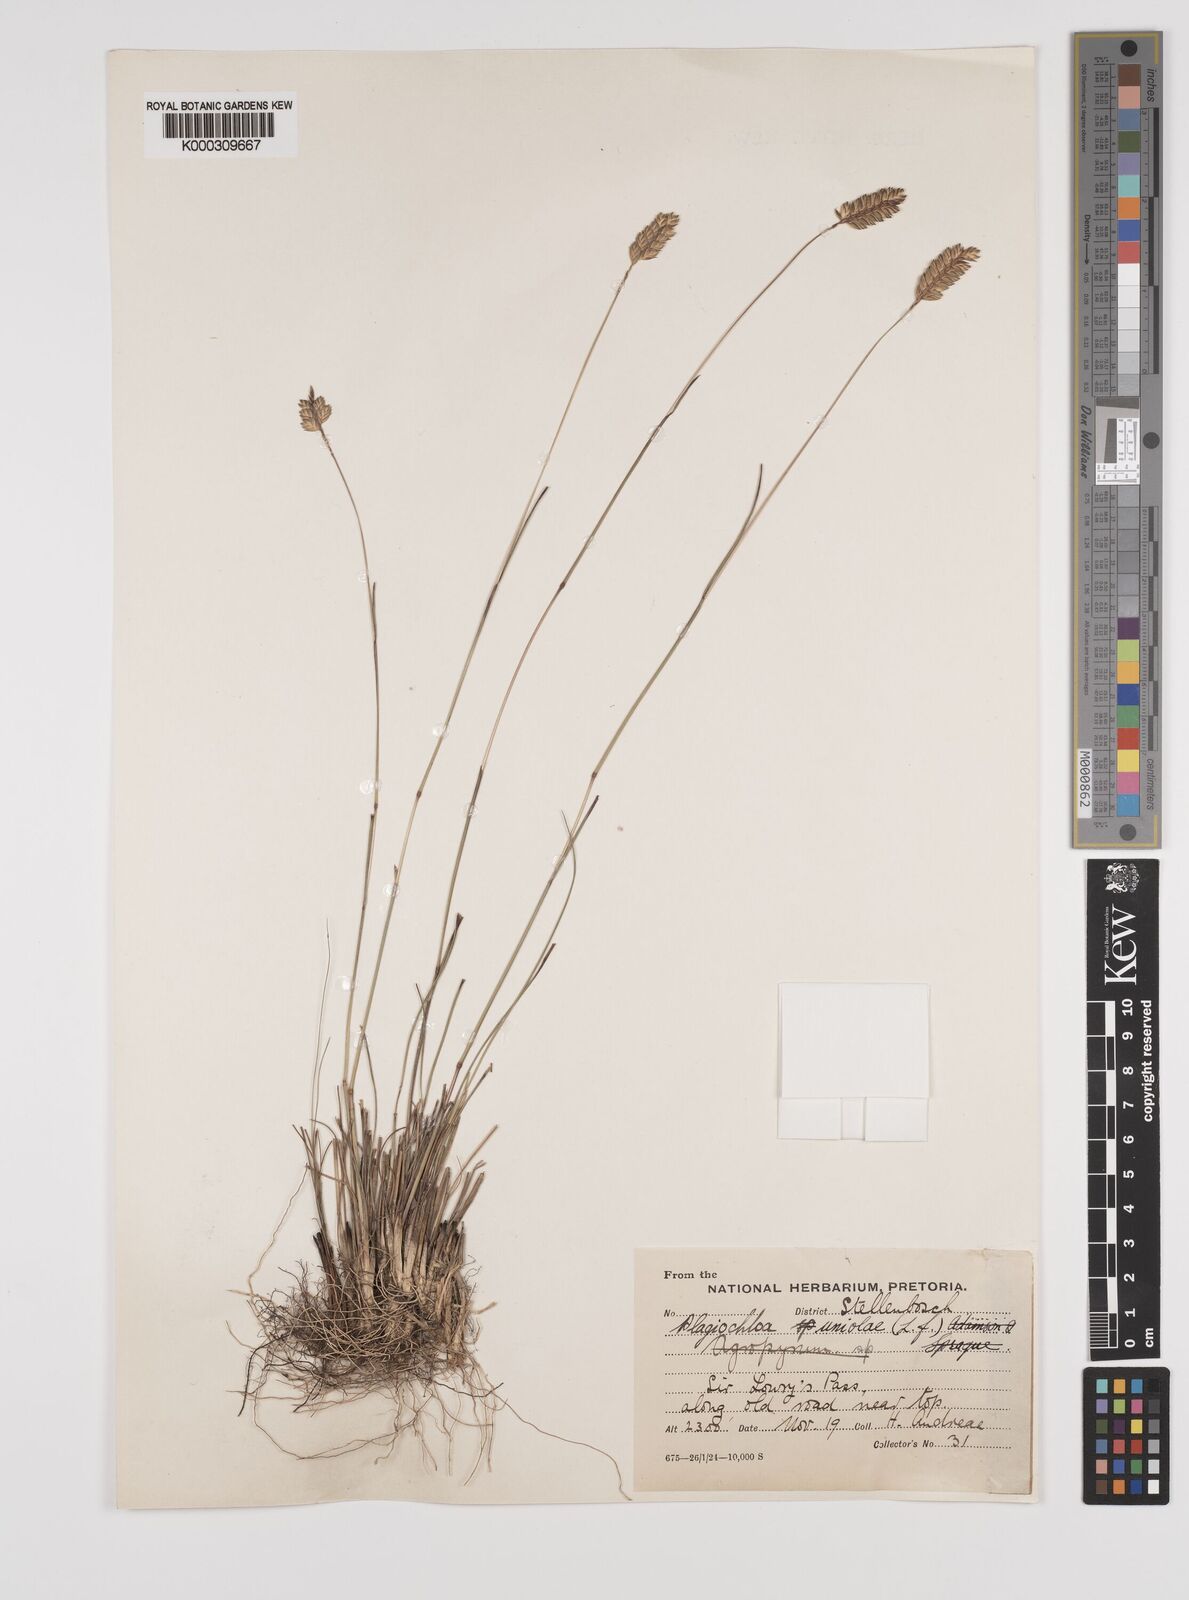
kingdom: Plantae
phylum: Tracheophyta
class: Liliopsida
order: Poales
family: Poaceae
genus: Tribolium
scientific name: Tribolium uniolae
